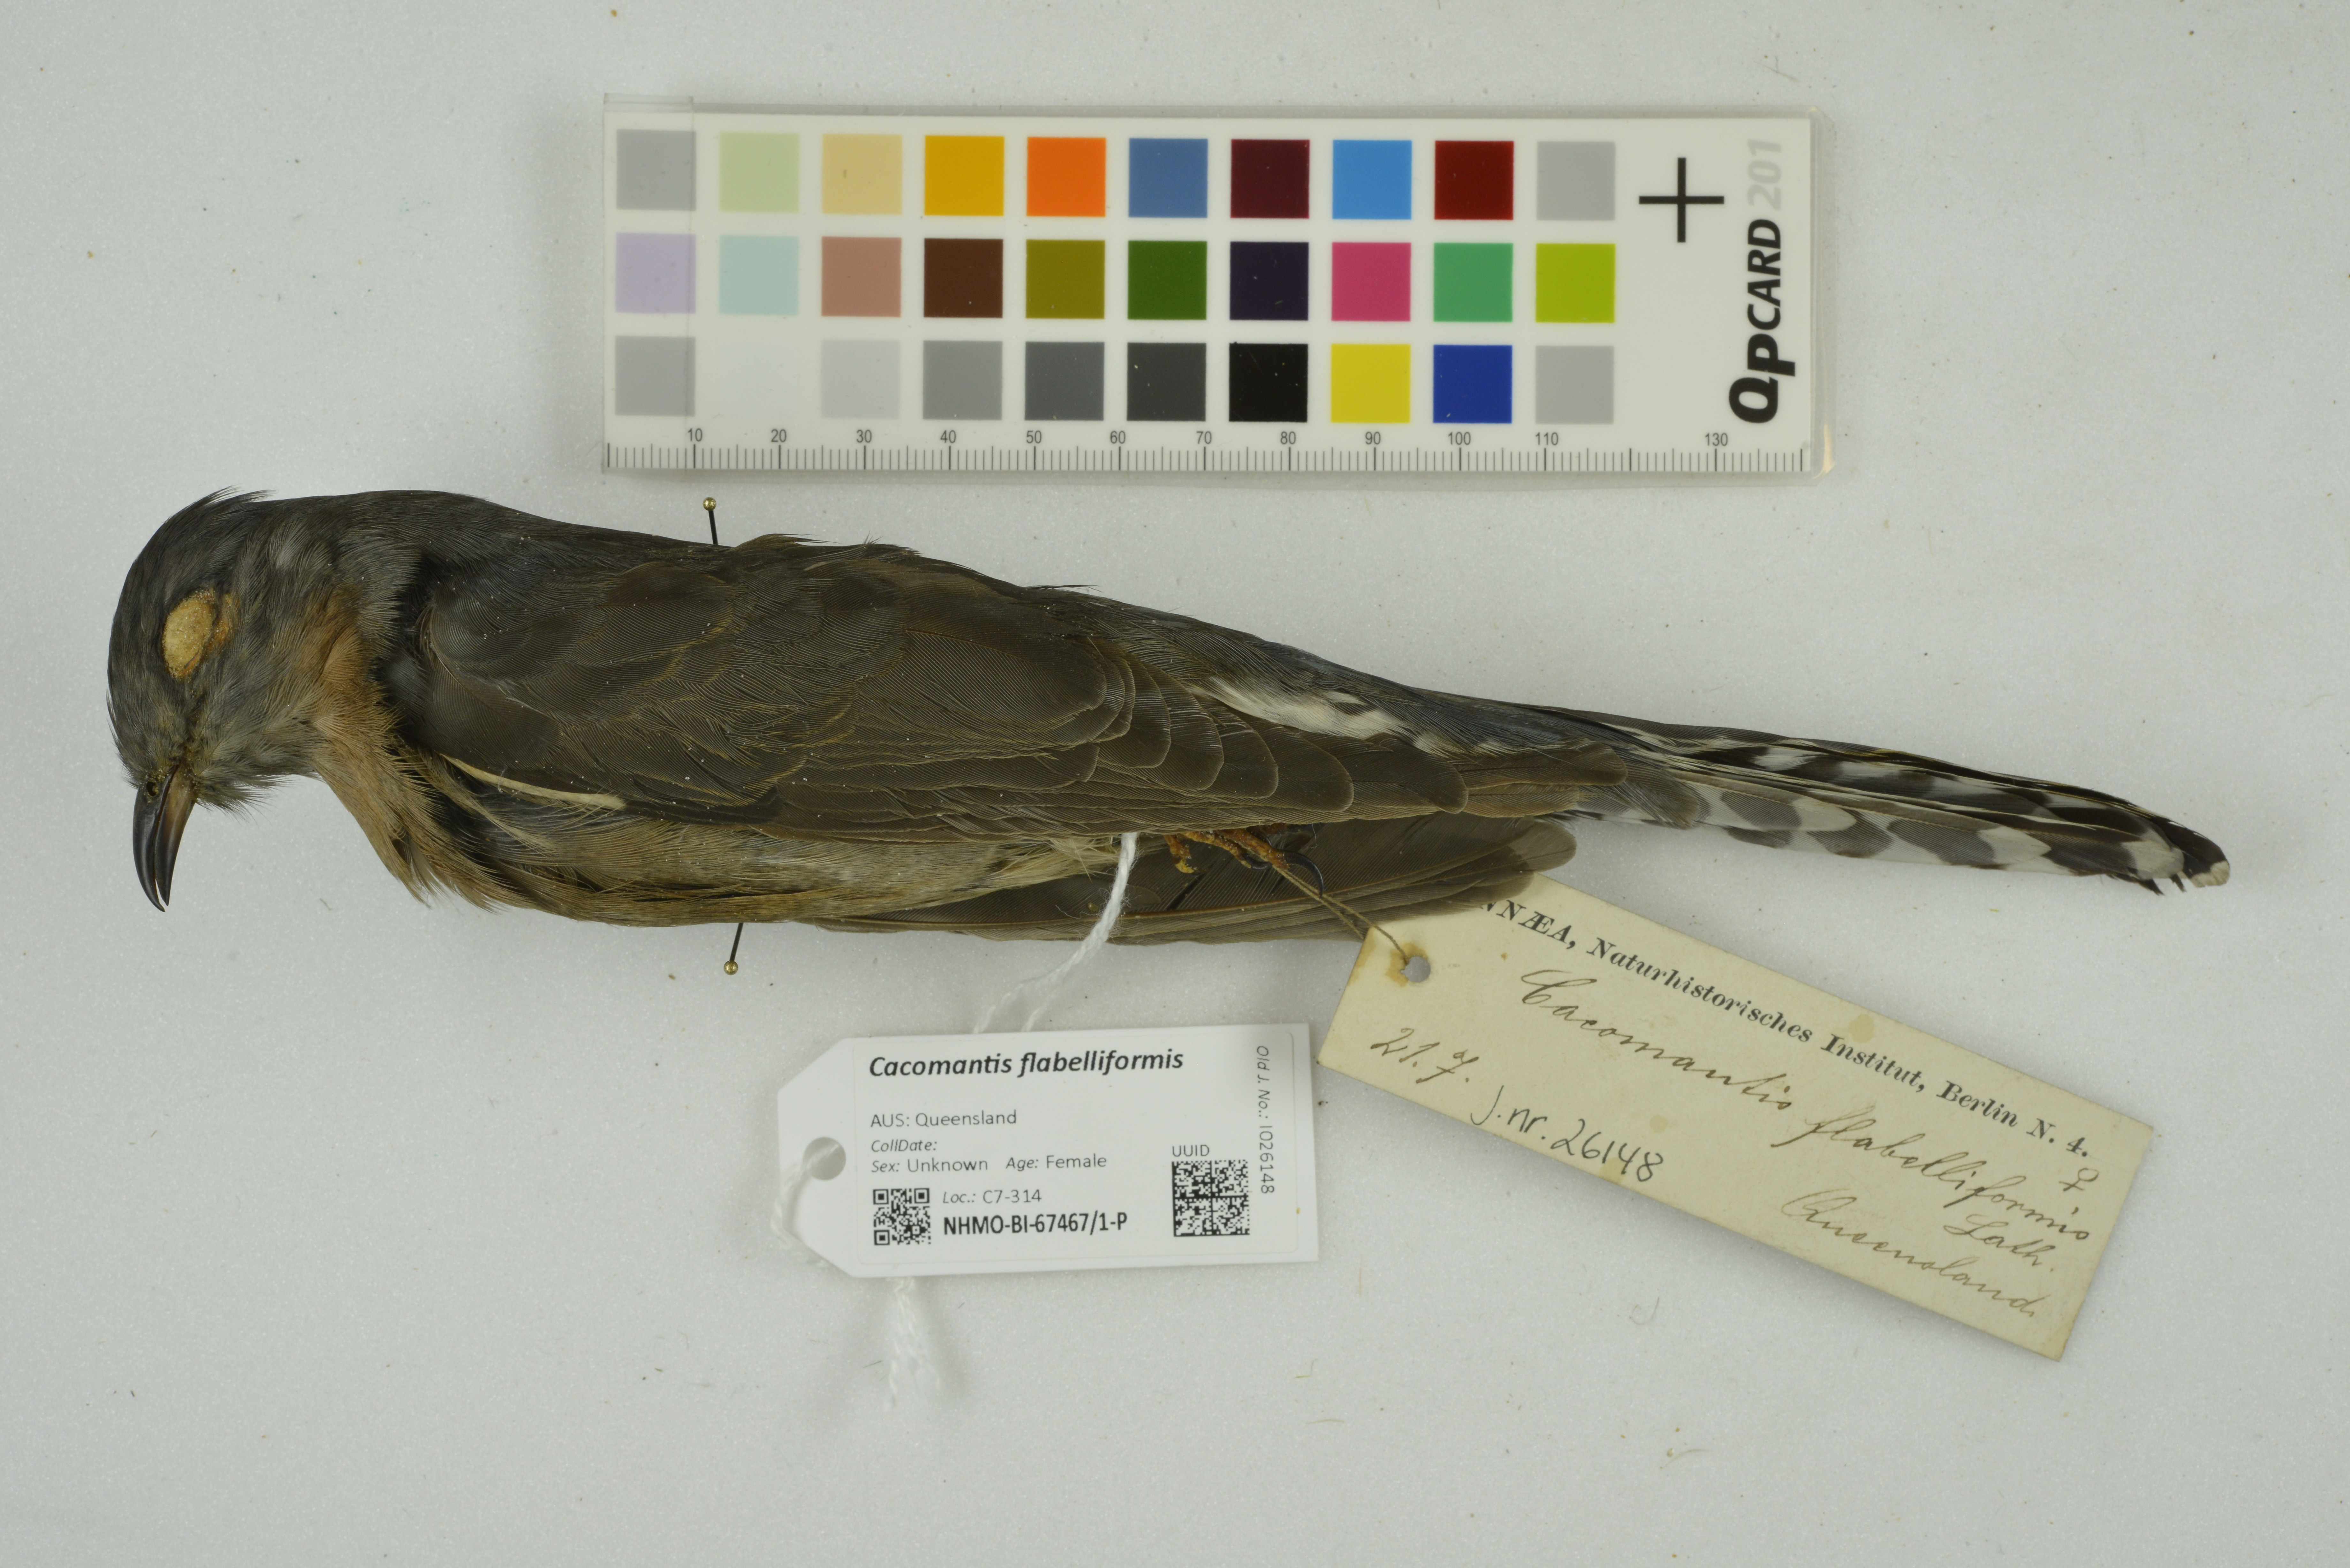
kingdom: Animalia
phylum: Chordata
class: Aves
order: Cuculiformes
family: Cuculidae
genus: Cacomantis
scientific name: Cacomantis flabelliformis
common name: Fan-tailed cuckoo
